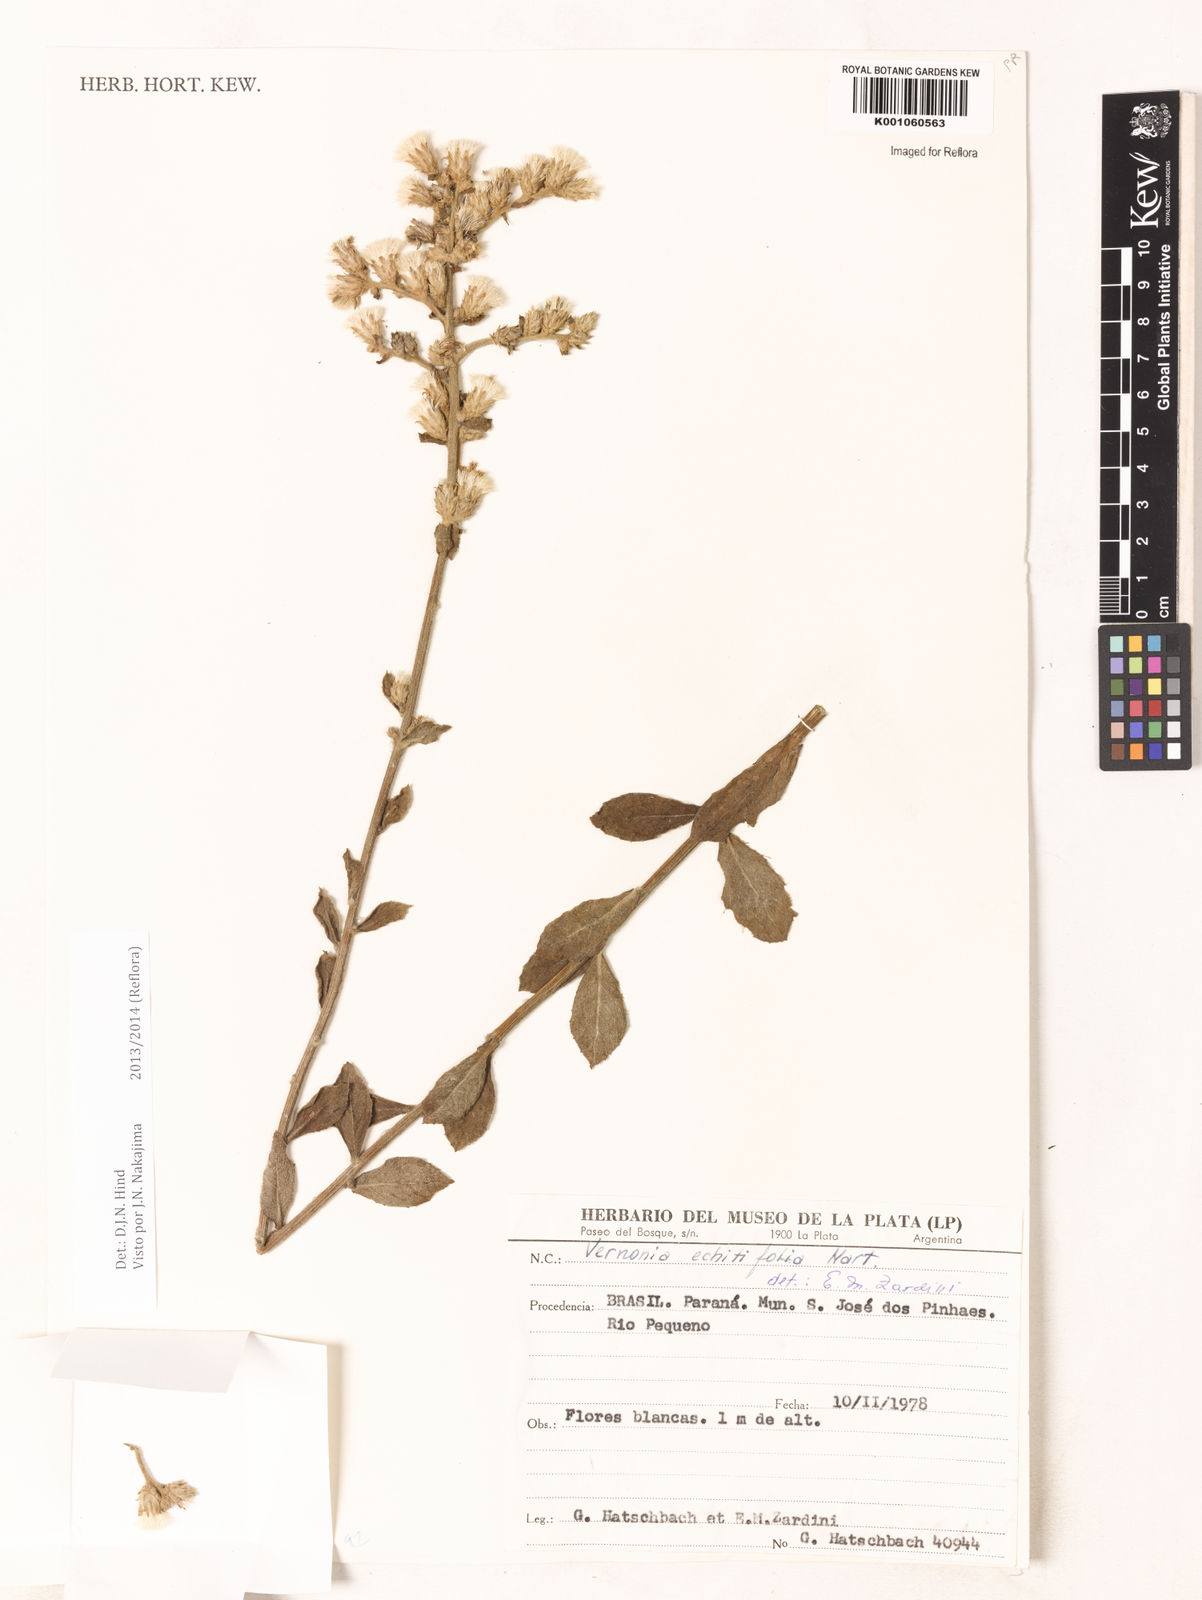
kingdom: Plantae
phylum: Tracheophyta
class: Magnoliopsida
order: Asterales
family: Asteraceae
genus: Acilepidopsis
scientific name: Acilepidopsis echitifolia
